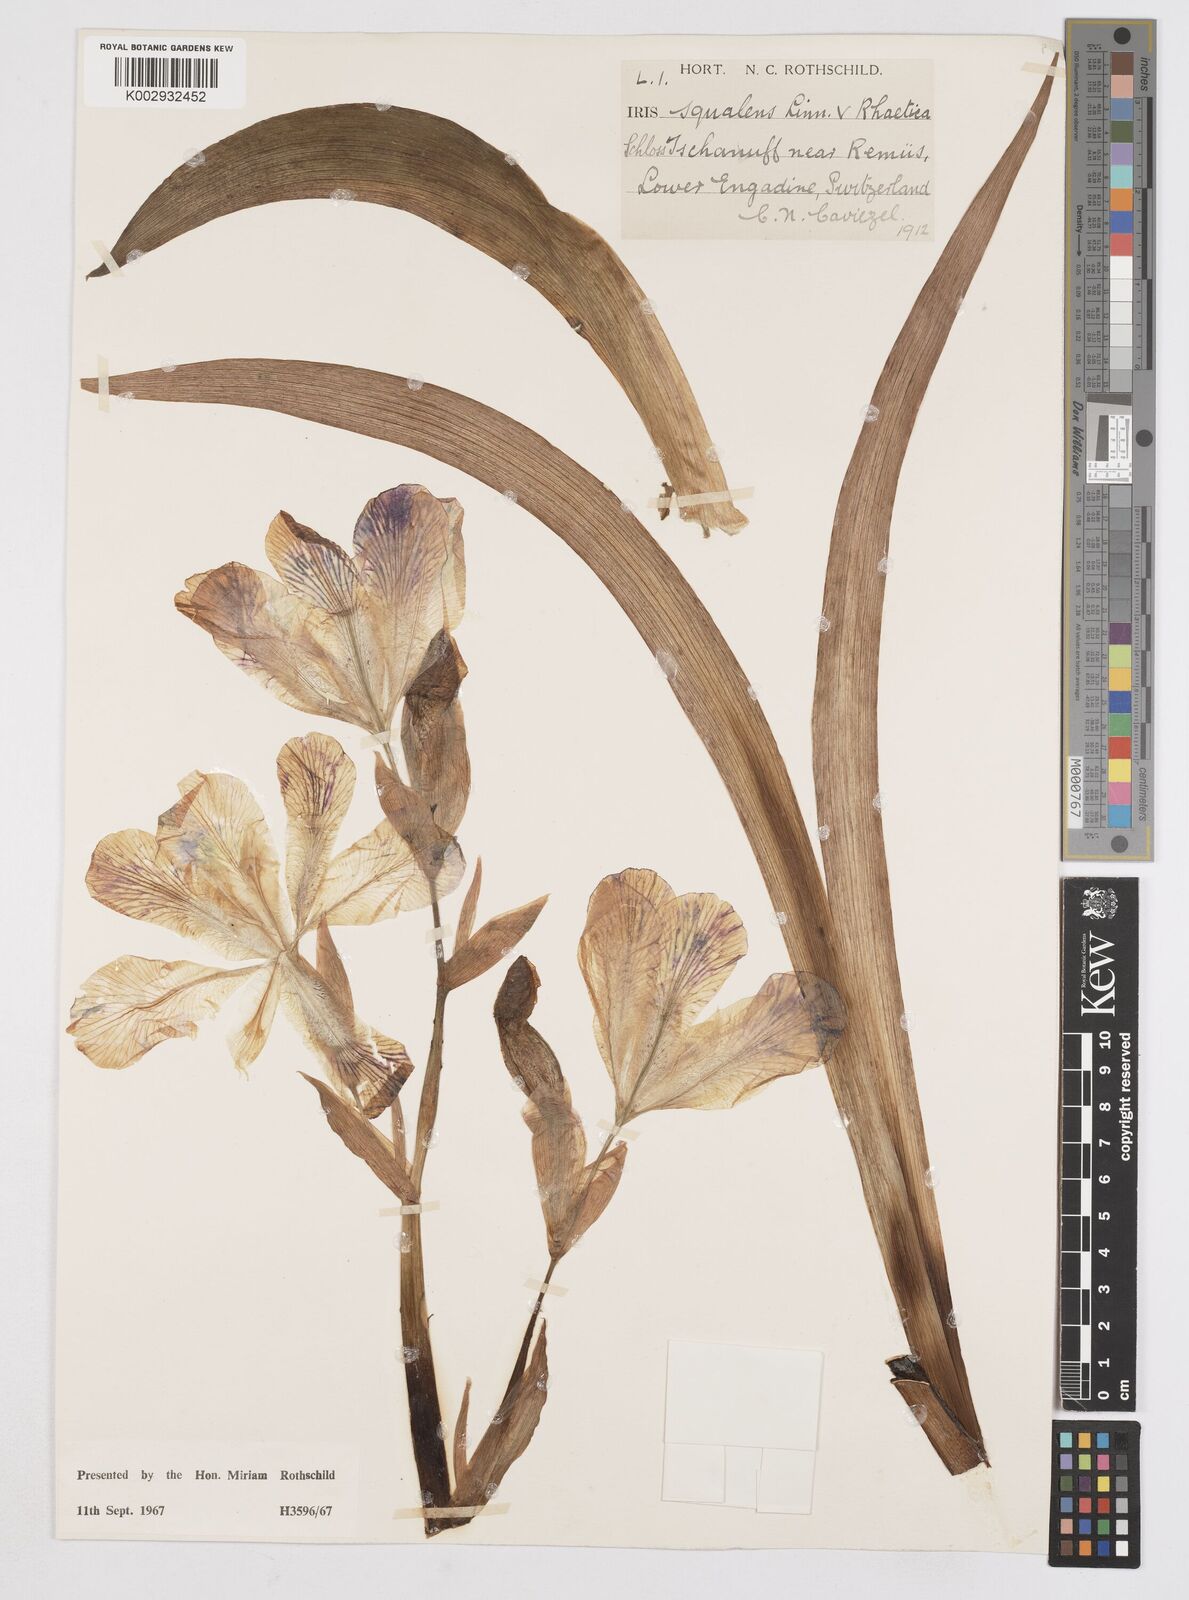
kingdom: Plantae
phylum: Tracheophyta
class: Liliopsida
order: Asparagales
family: Iridaceae
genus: Iris
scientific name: Iris
